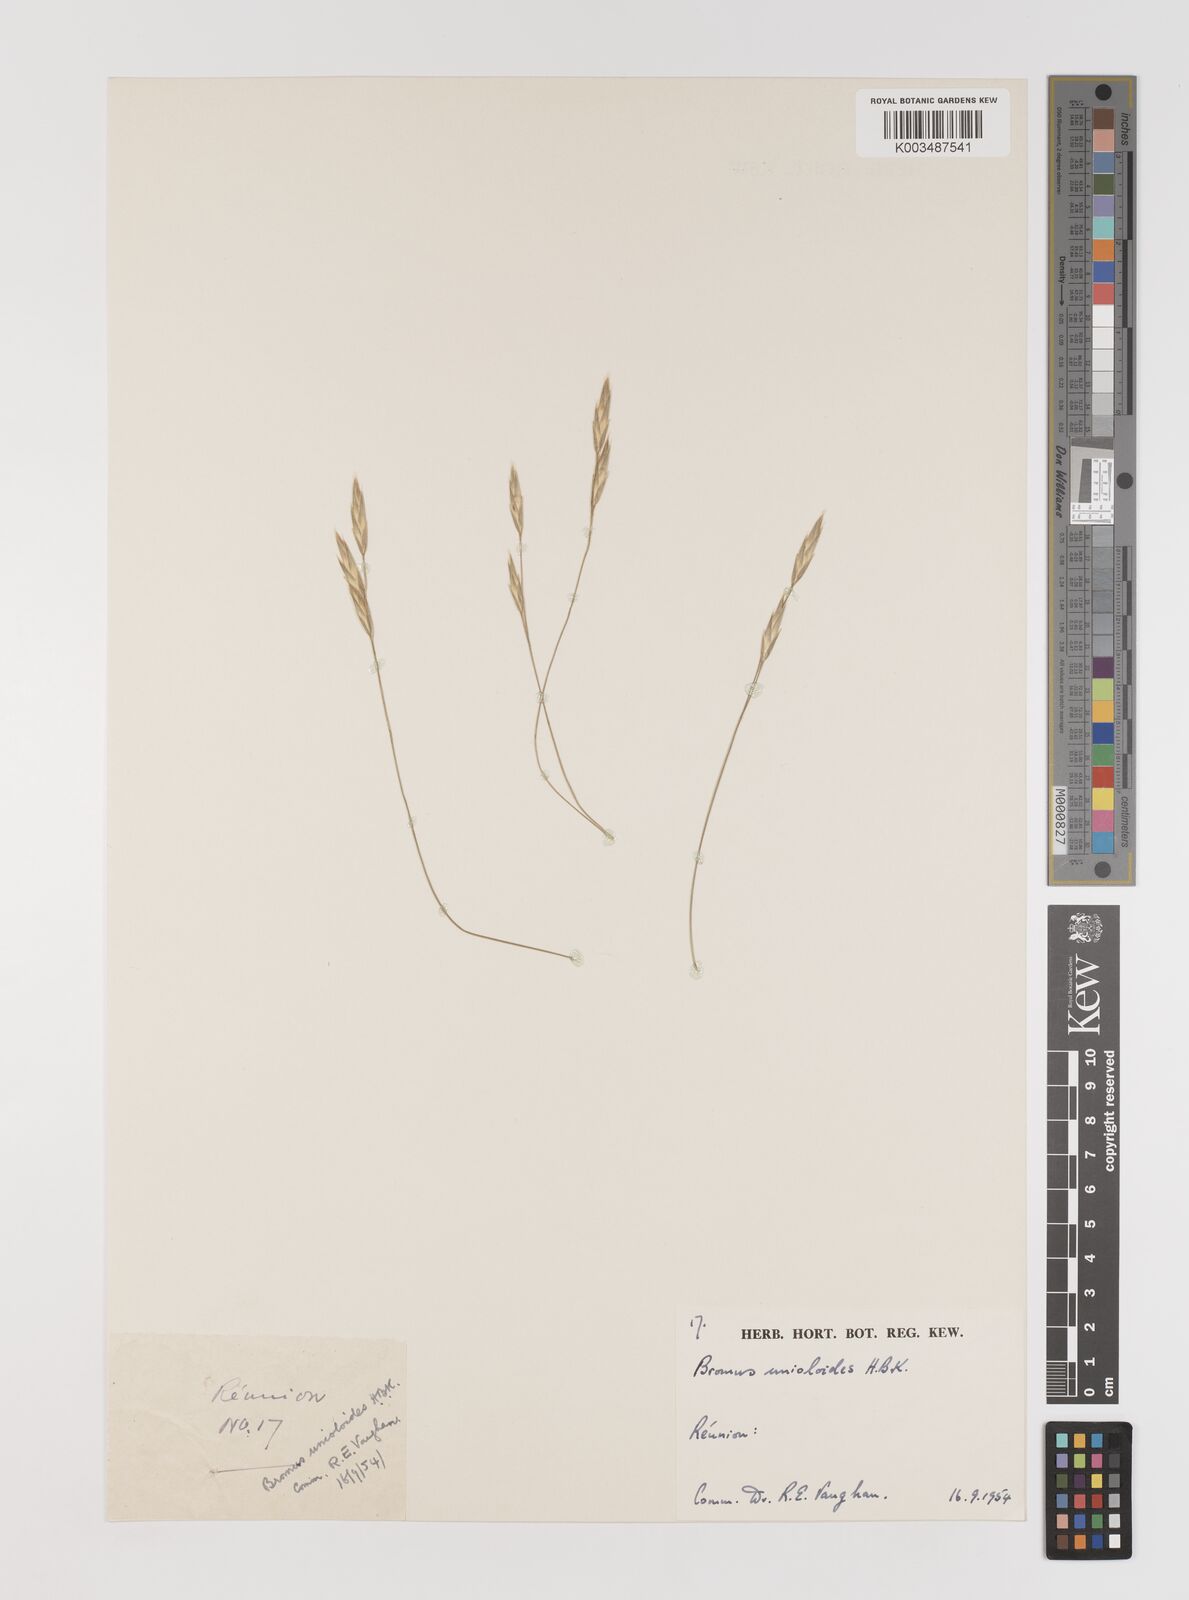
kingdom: Plantae
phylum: Tracheophyta
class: Liliopsida
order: Poales
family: Poaceae
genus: Bromus
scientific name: Bromus catharticus
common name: Rescuegrass
